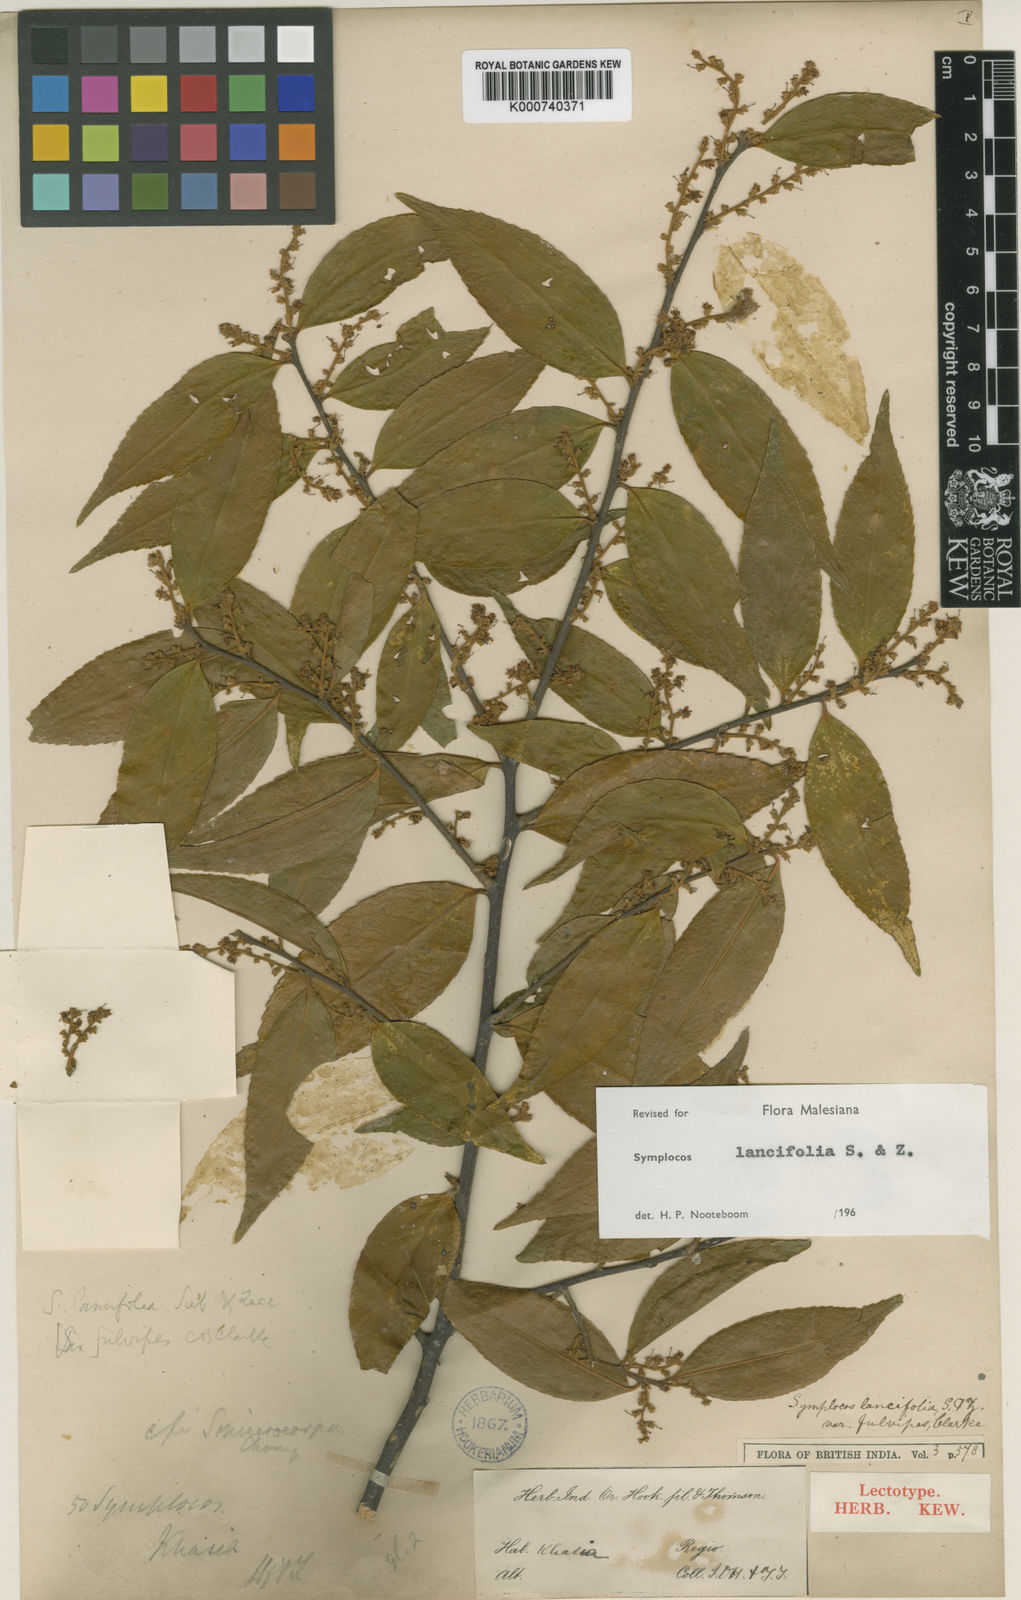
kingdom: Plantae
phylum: Tracheophyta
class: Magnoliopsida
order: Ericales
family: Symplocaceae
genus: Symplocos
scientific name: Symplocos lancifolia
